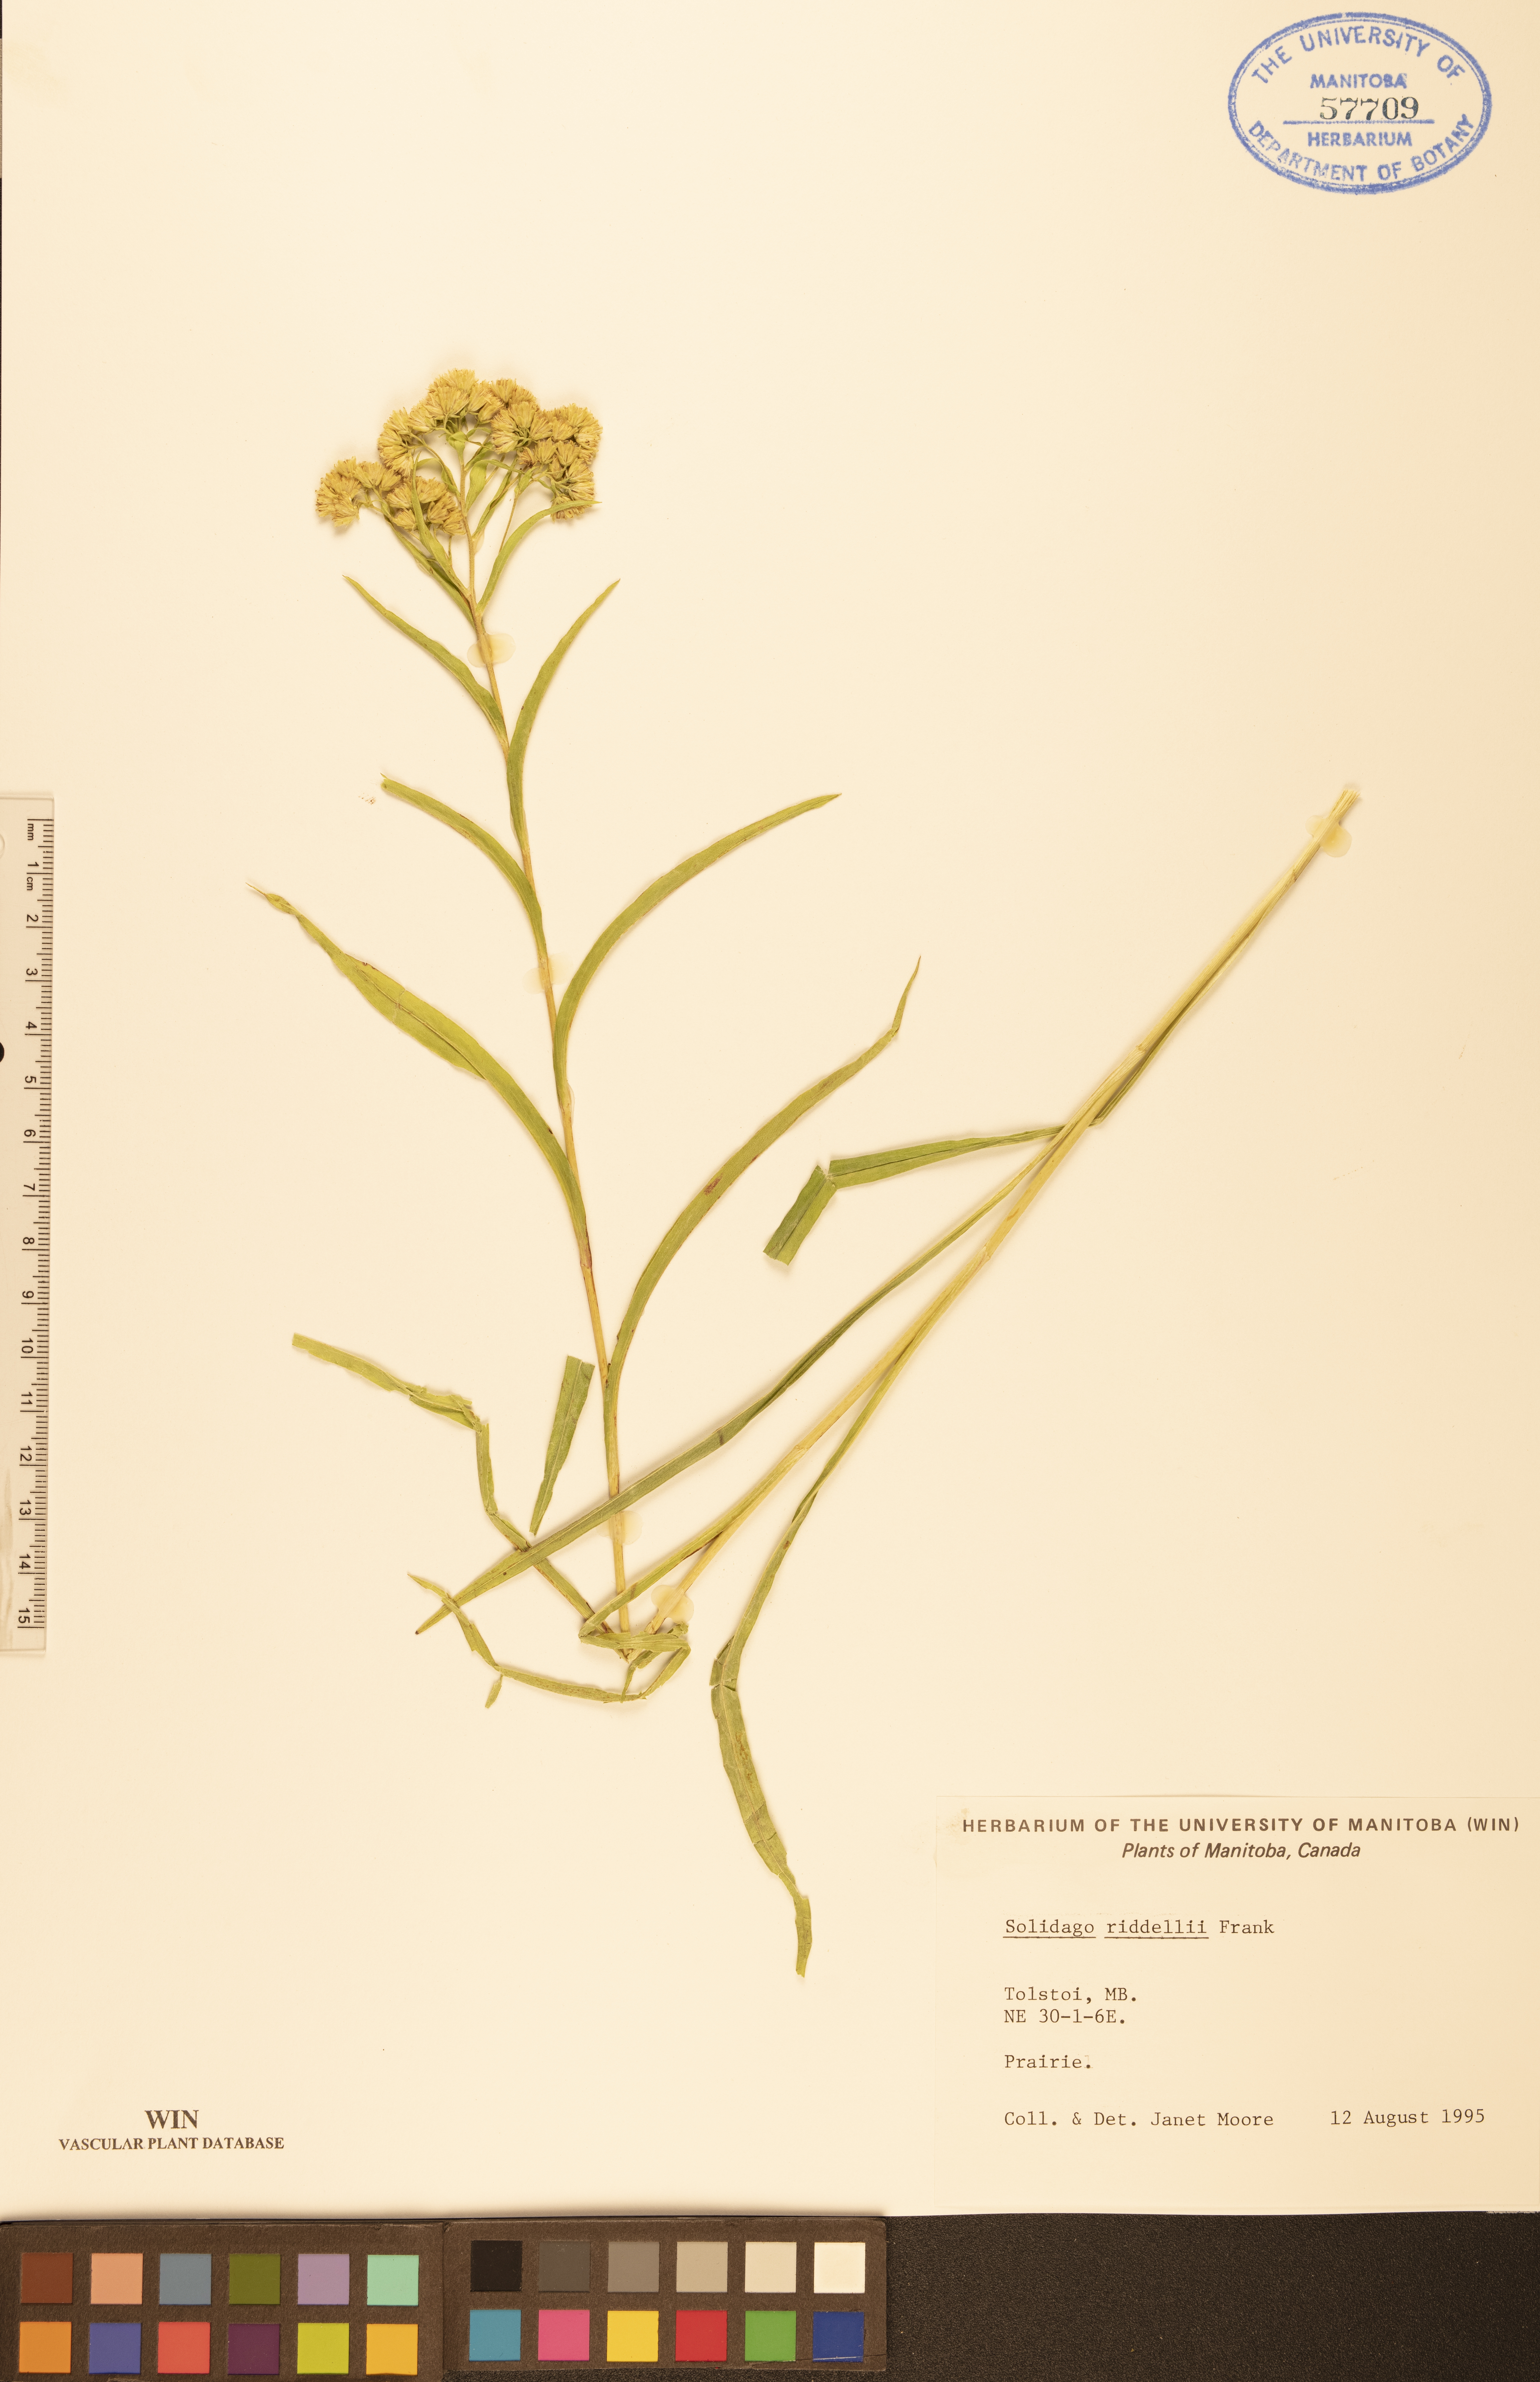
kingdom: Plantae
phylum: Tracheophyta
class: Magnoliopsida
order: Asterales
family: Asteraceae
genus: Solidago
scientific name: Solidago riddellii
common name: Riddell's goldenrod
